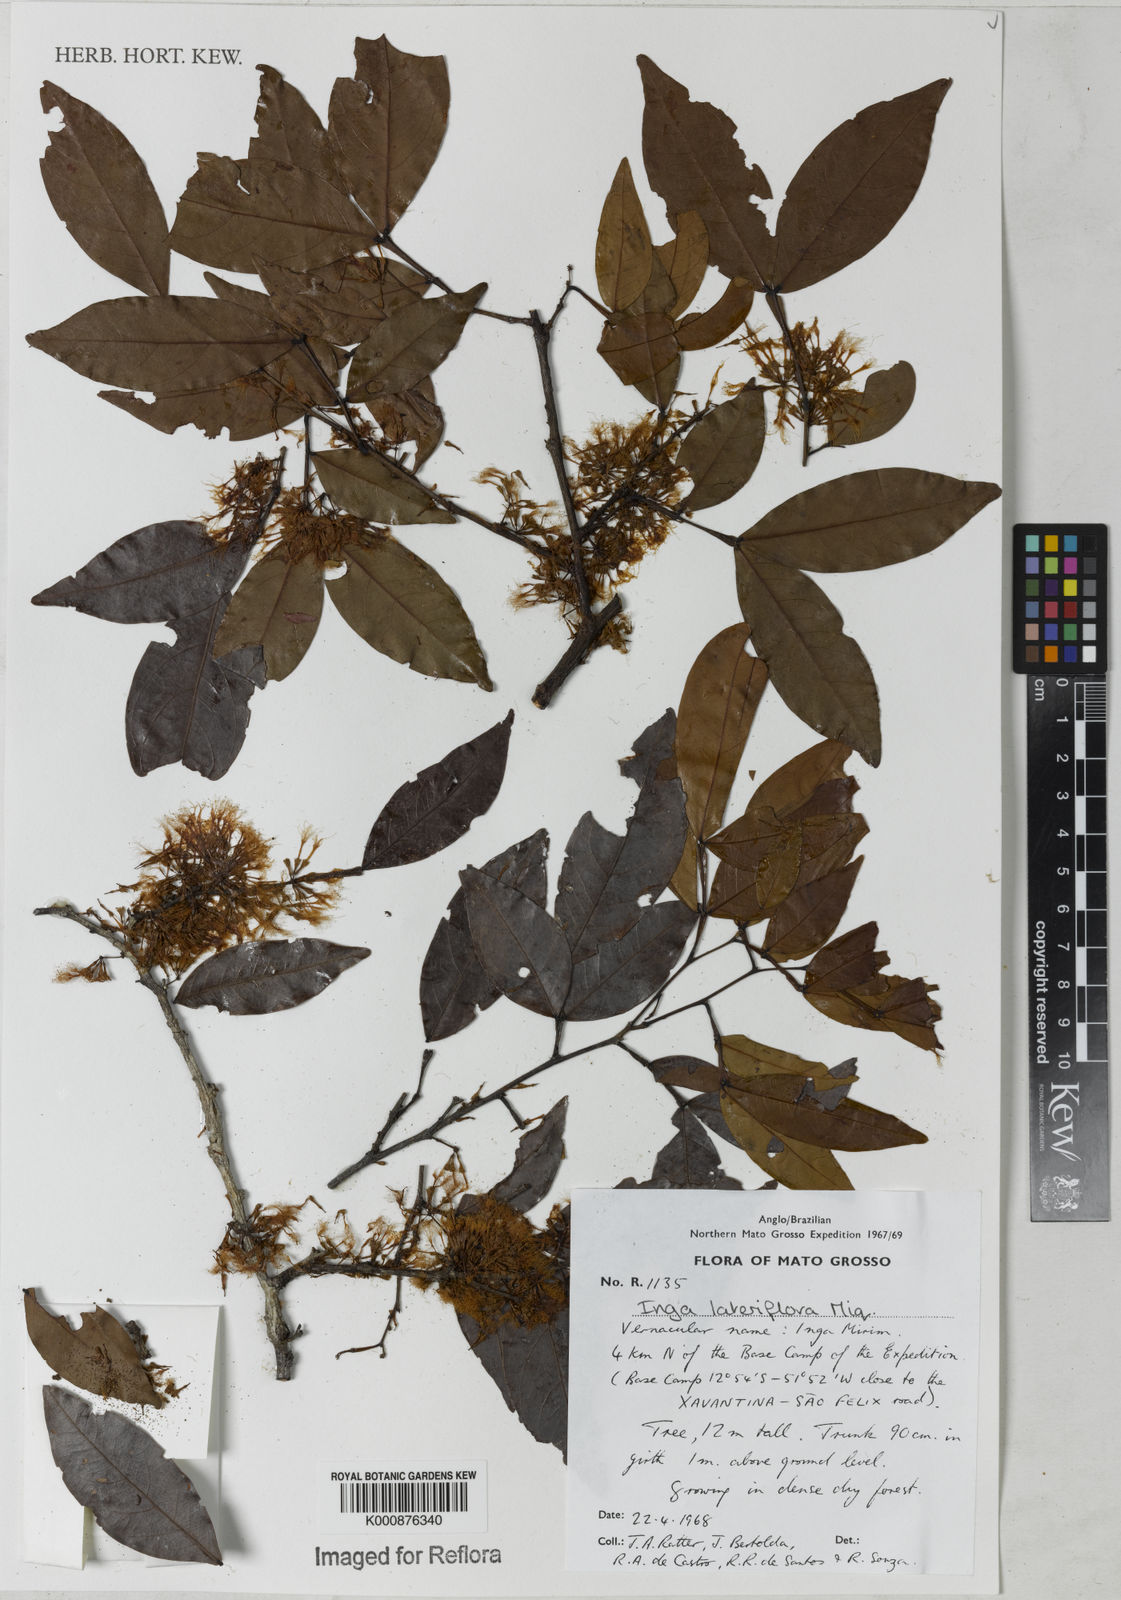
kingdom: Plantae
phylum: Tracheophyta
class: Magnoliopsida
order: Fabales
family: Fabaceae
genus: Inga
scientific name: Inga lateriflora
